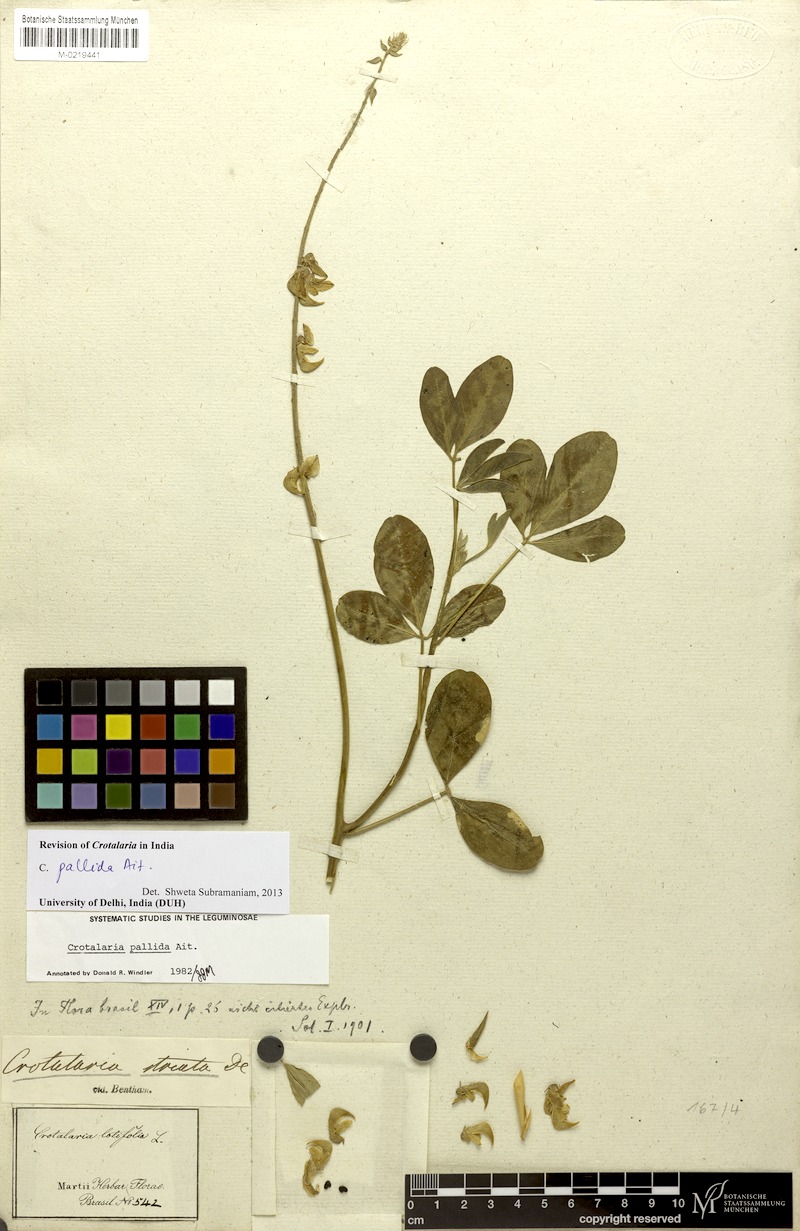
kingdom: Plantae
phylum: Tracheophyta
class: Magnoliopsida
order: Fabales
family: Fabaceae
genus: Crotalaria
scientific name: Crotalaria pallida
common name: Smooth rattlebox
